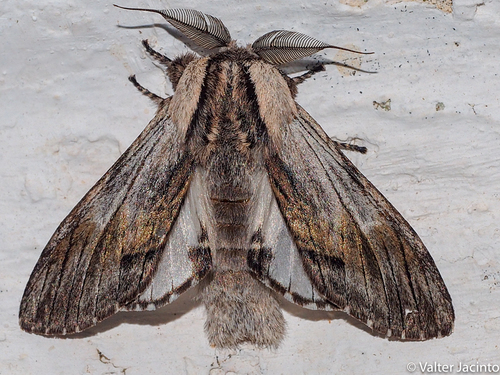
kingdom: Animalia
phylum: Arthropoda
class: Insecta
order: Lepidoptera
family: Notodontidae
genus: Harpyia
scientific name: Harpyia milhauseri
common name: Tawny prominent
